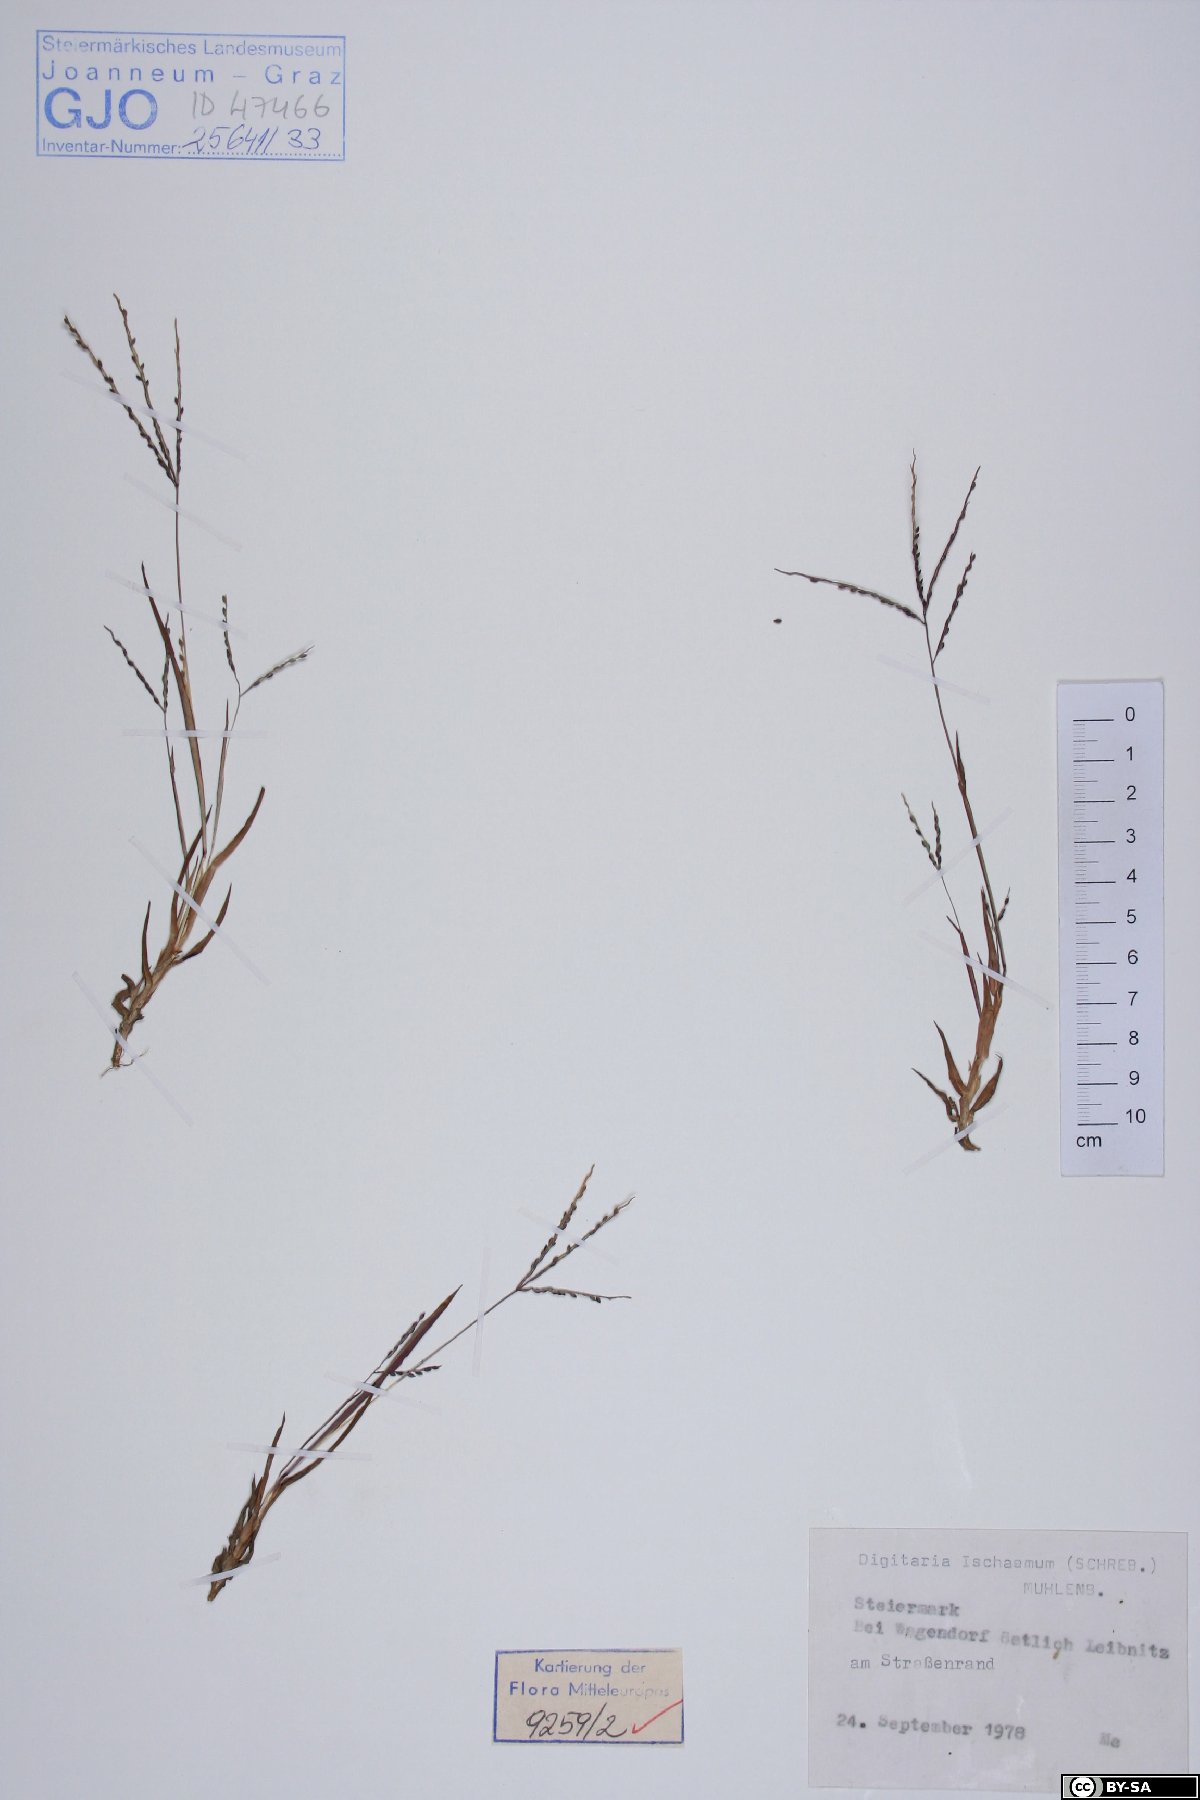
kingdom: Plantae
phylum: Tracheophyta
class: Liliopsida
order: Poales
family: Poaceae
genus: Digitaria
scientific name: Digitaria ischaemum
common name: Smooth crabgrass
